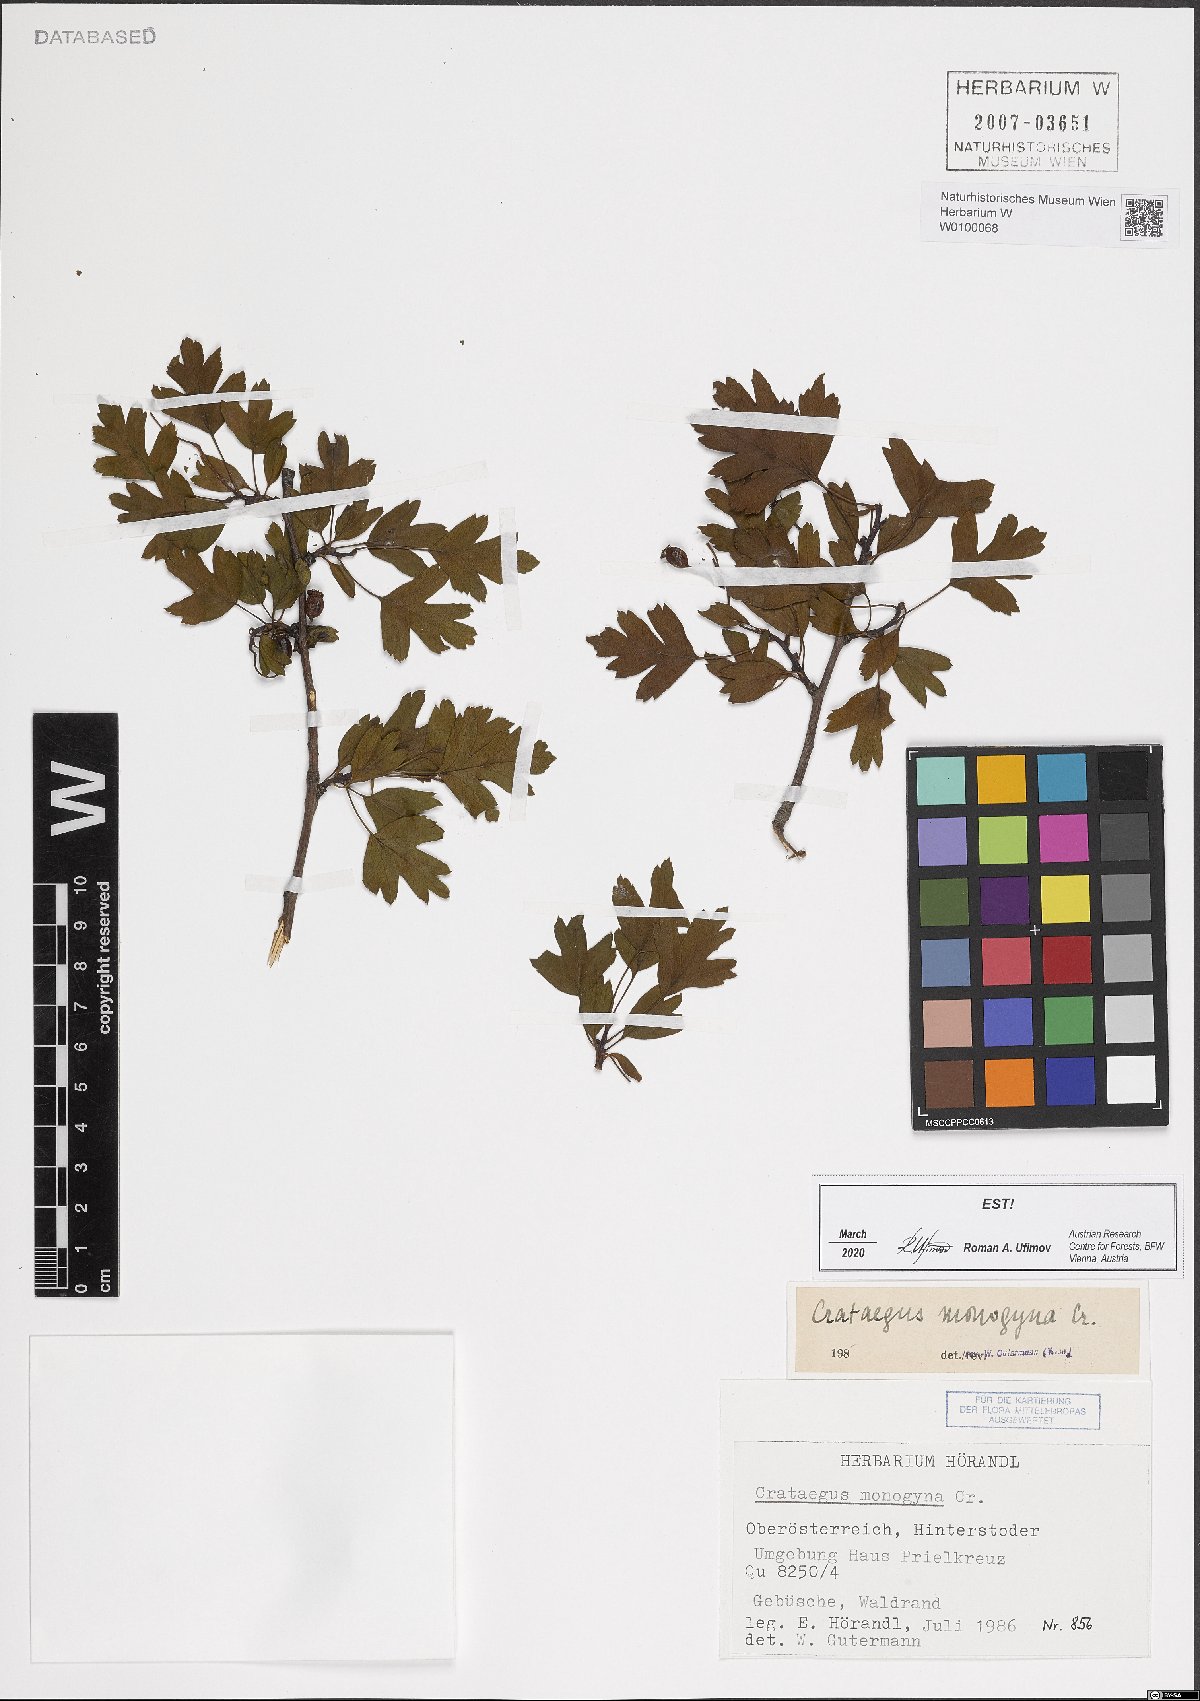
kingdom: Plantae
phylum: Tracheophyta
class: Magnoliopsida
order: Rosales
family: Rosaceae
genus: Crataegus
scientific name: Crataegus monogyna
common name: Hawthorn
